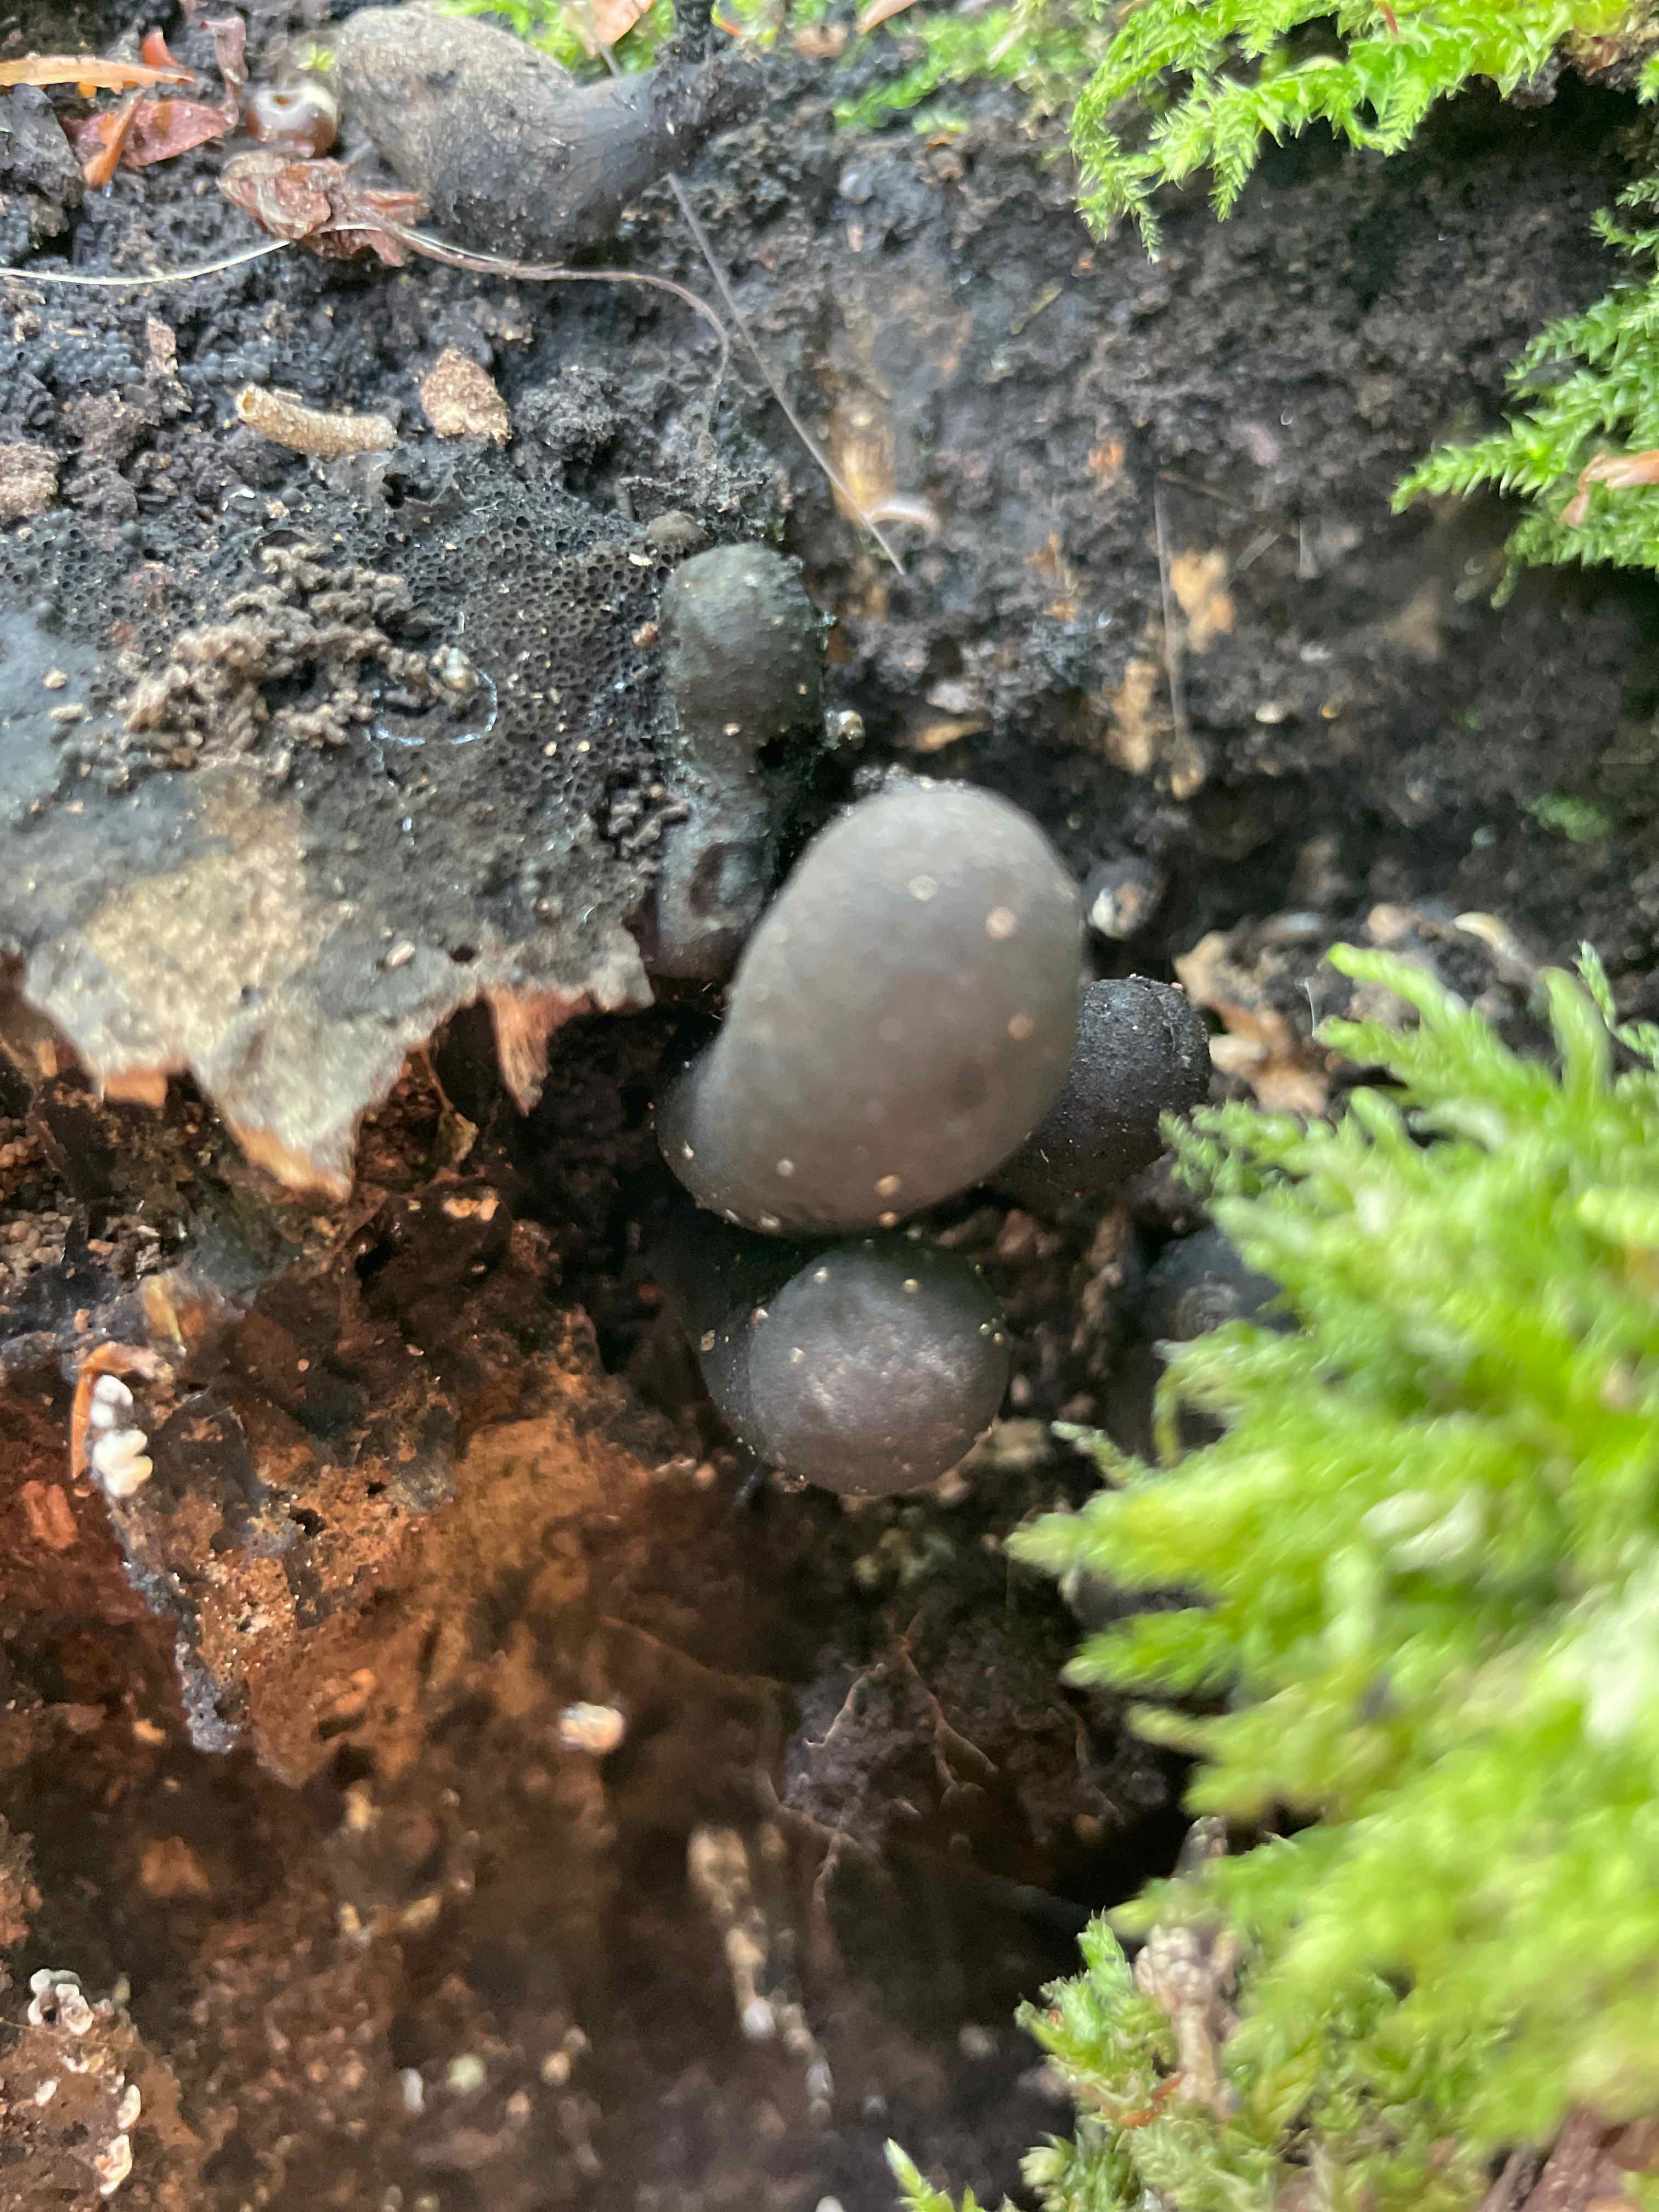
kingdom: Fungi
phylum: Ascomycota
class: Sordariomycetes
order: Xylariales
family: Xylariaceae
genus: Xylaria
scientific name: Xylaria polymorpha
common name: kølle-stødsvamp
